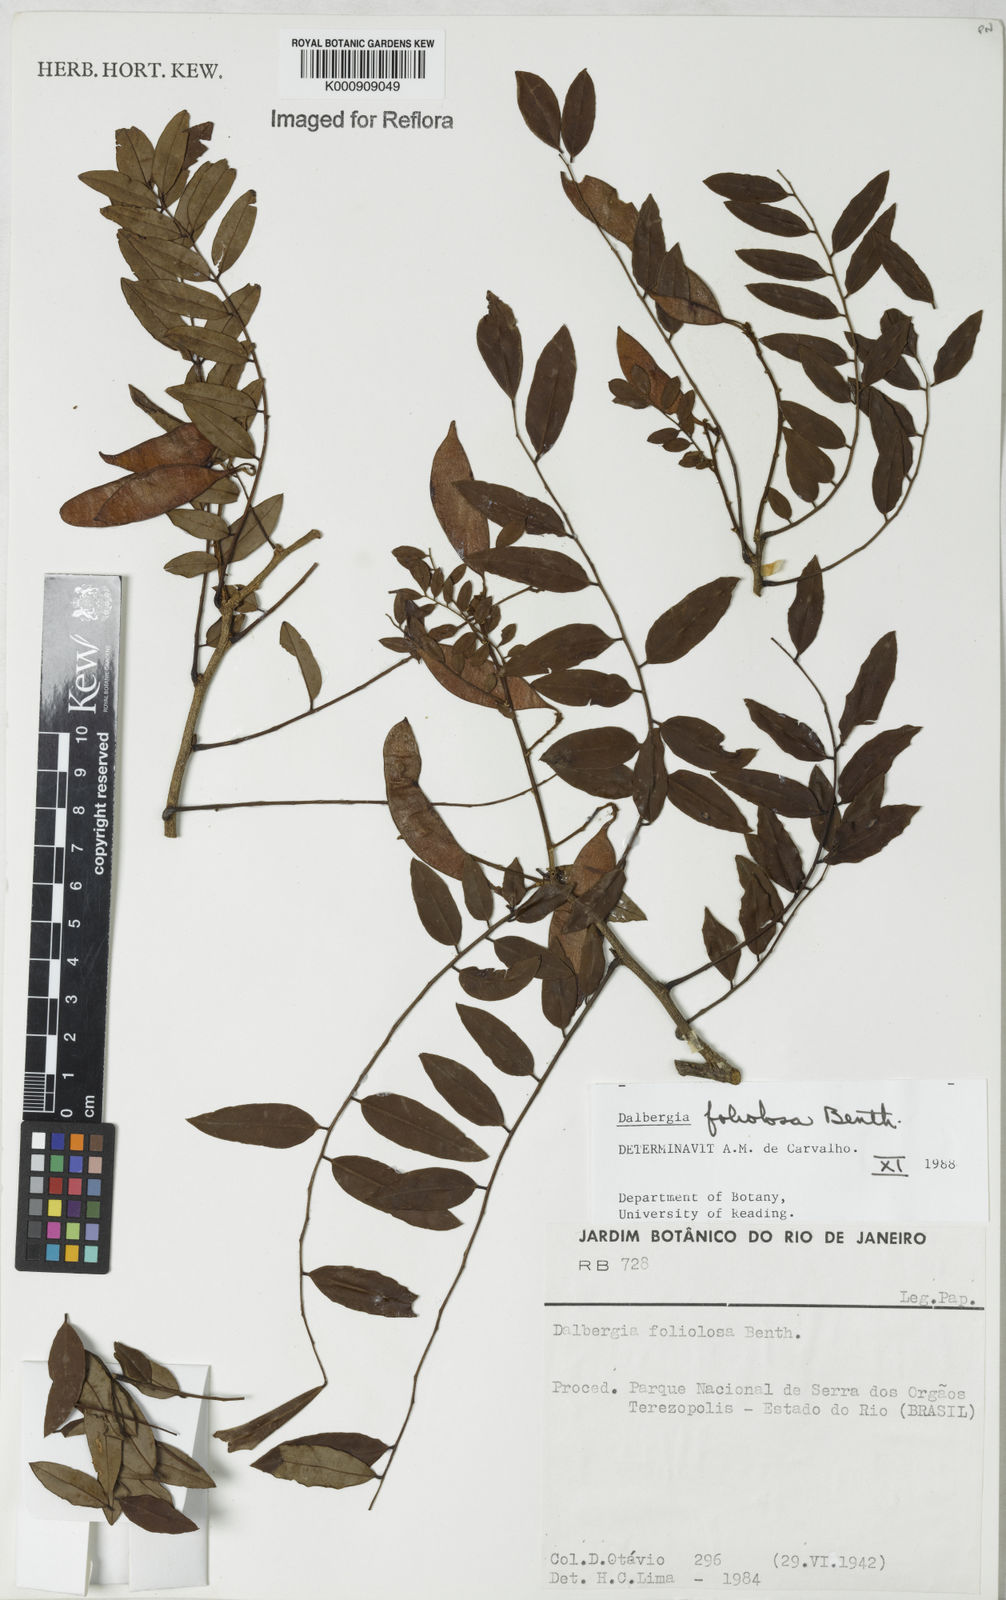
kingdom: Plantae
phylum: Tracheophyta
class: Magnoliopsida
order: Fabales
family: Fabaceae
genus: Dalbergia
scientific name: Dalbergia foliolosa
